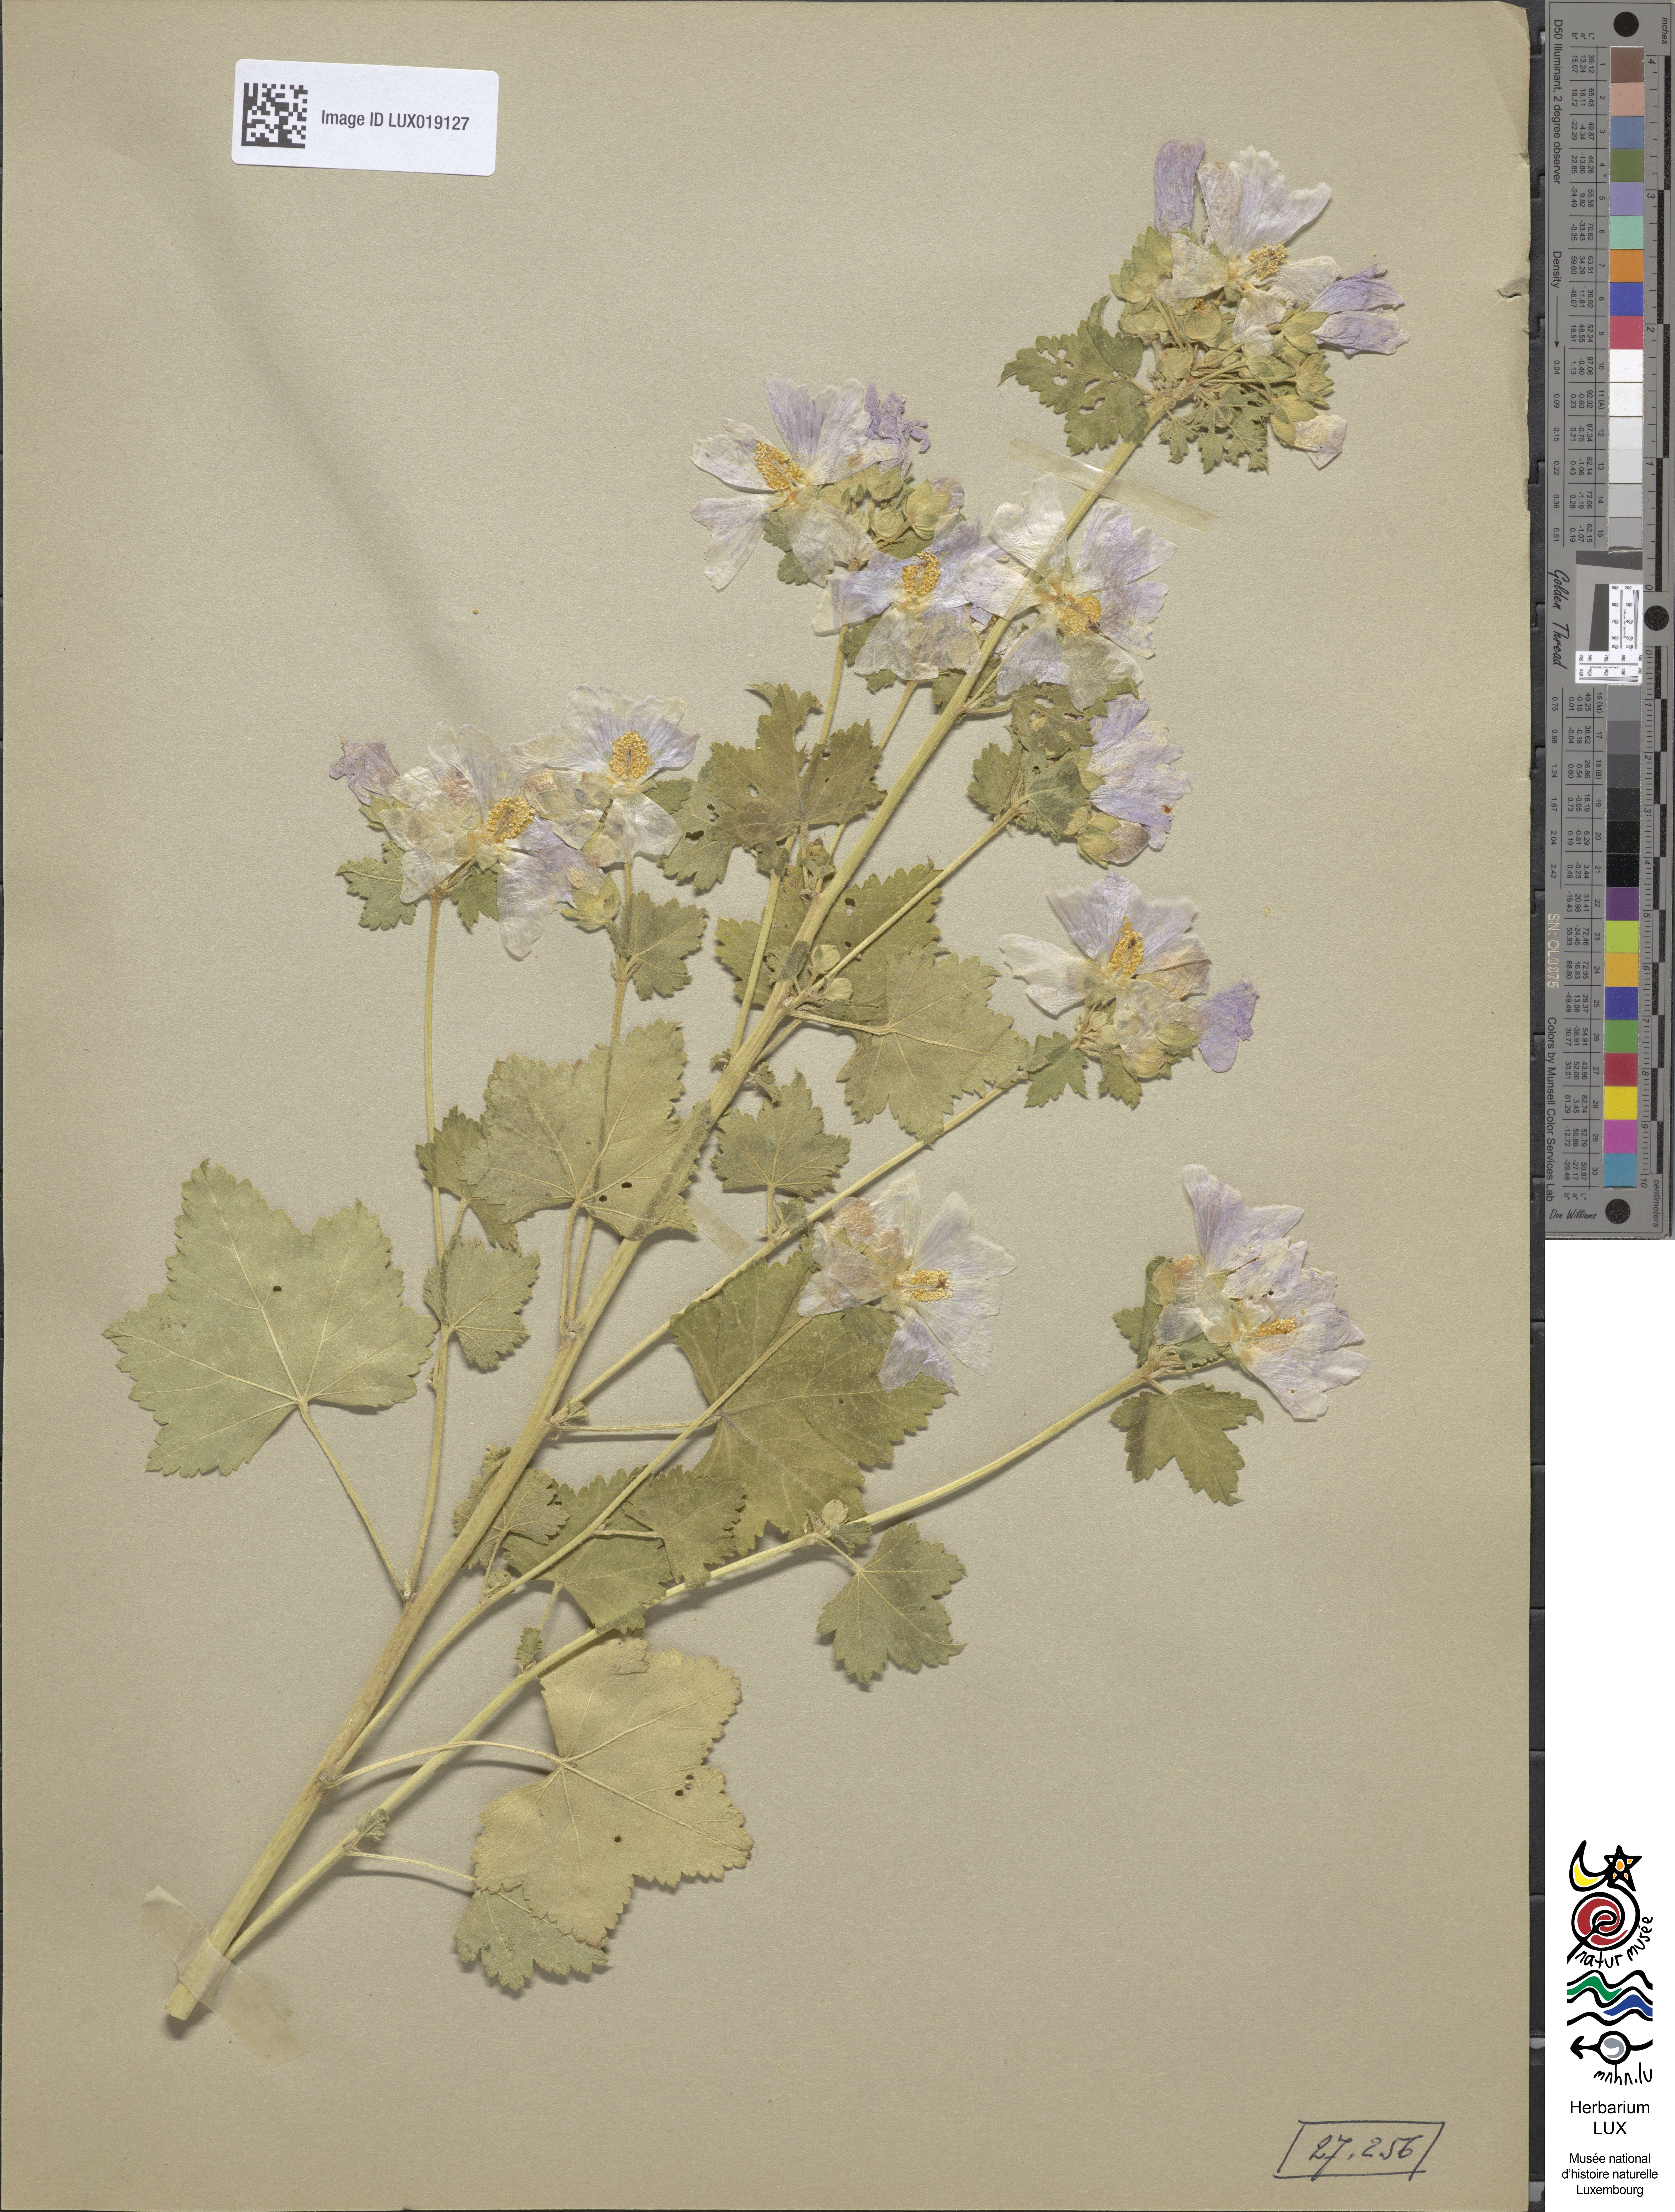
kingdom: Plantae
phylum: Tracheophyta
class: Magnoliopsida
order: Malvales
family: Malvaceae
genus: Malva
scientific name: Malva alcea
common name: Greater musk-mallow
